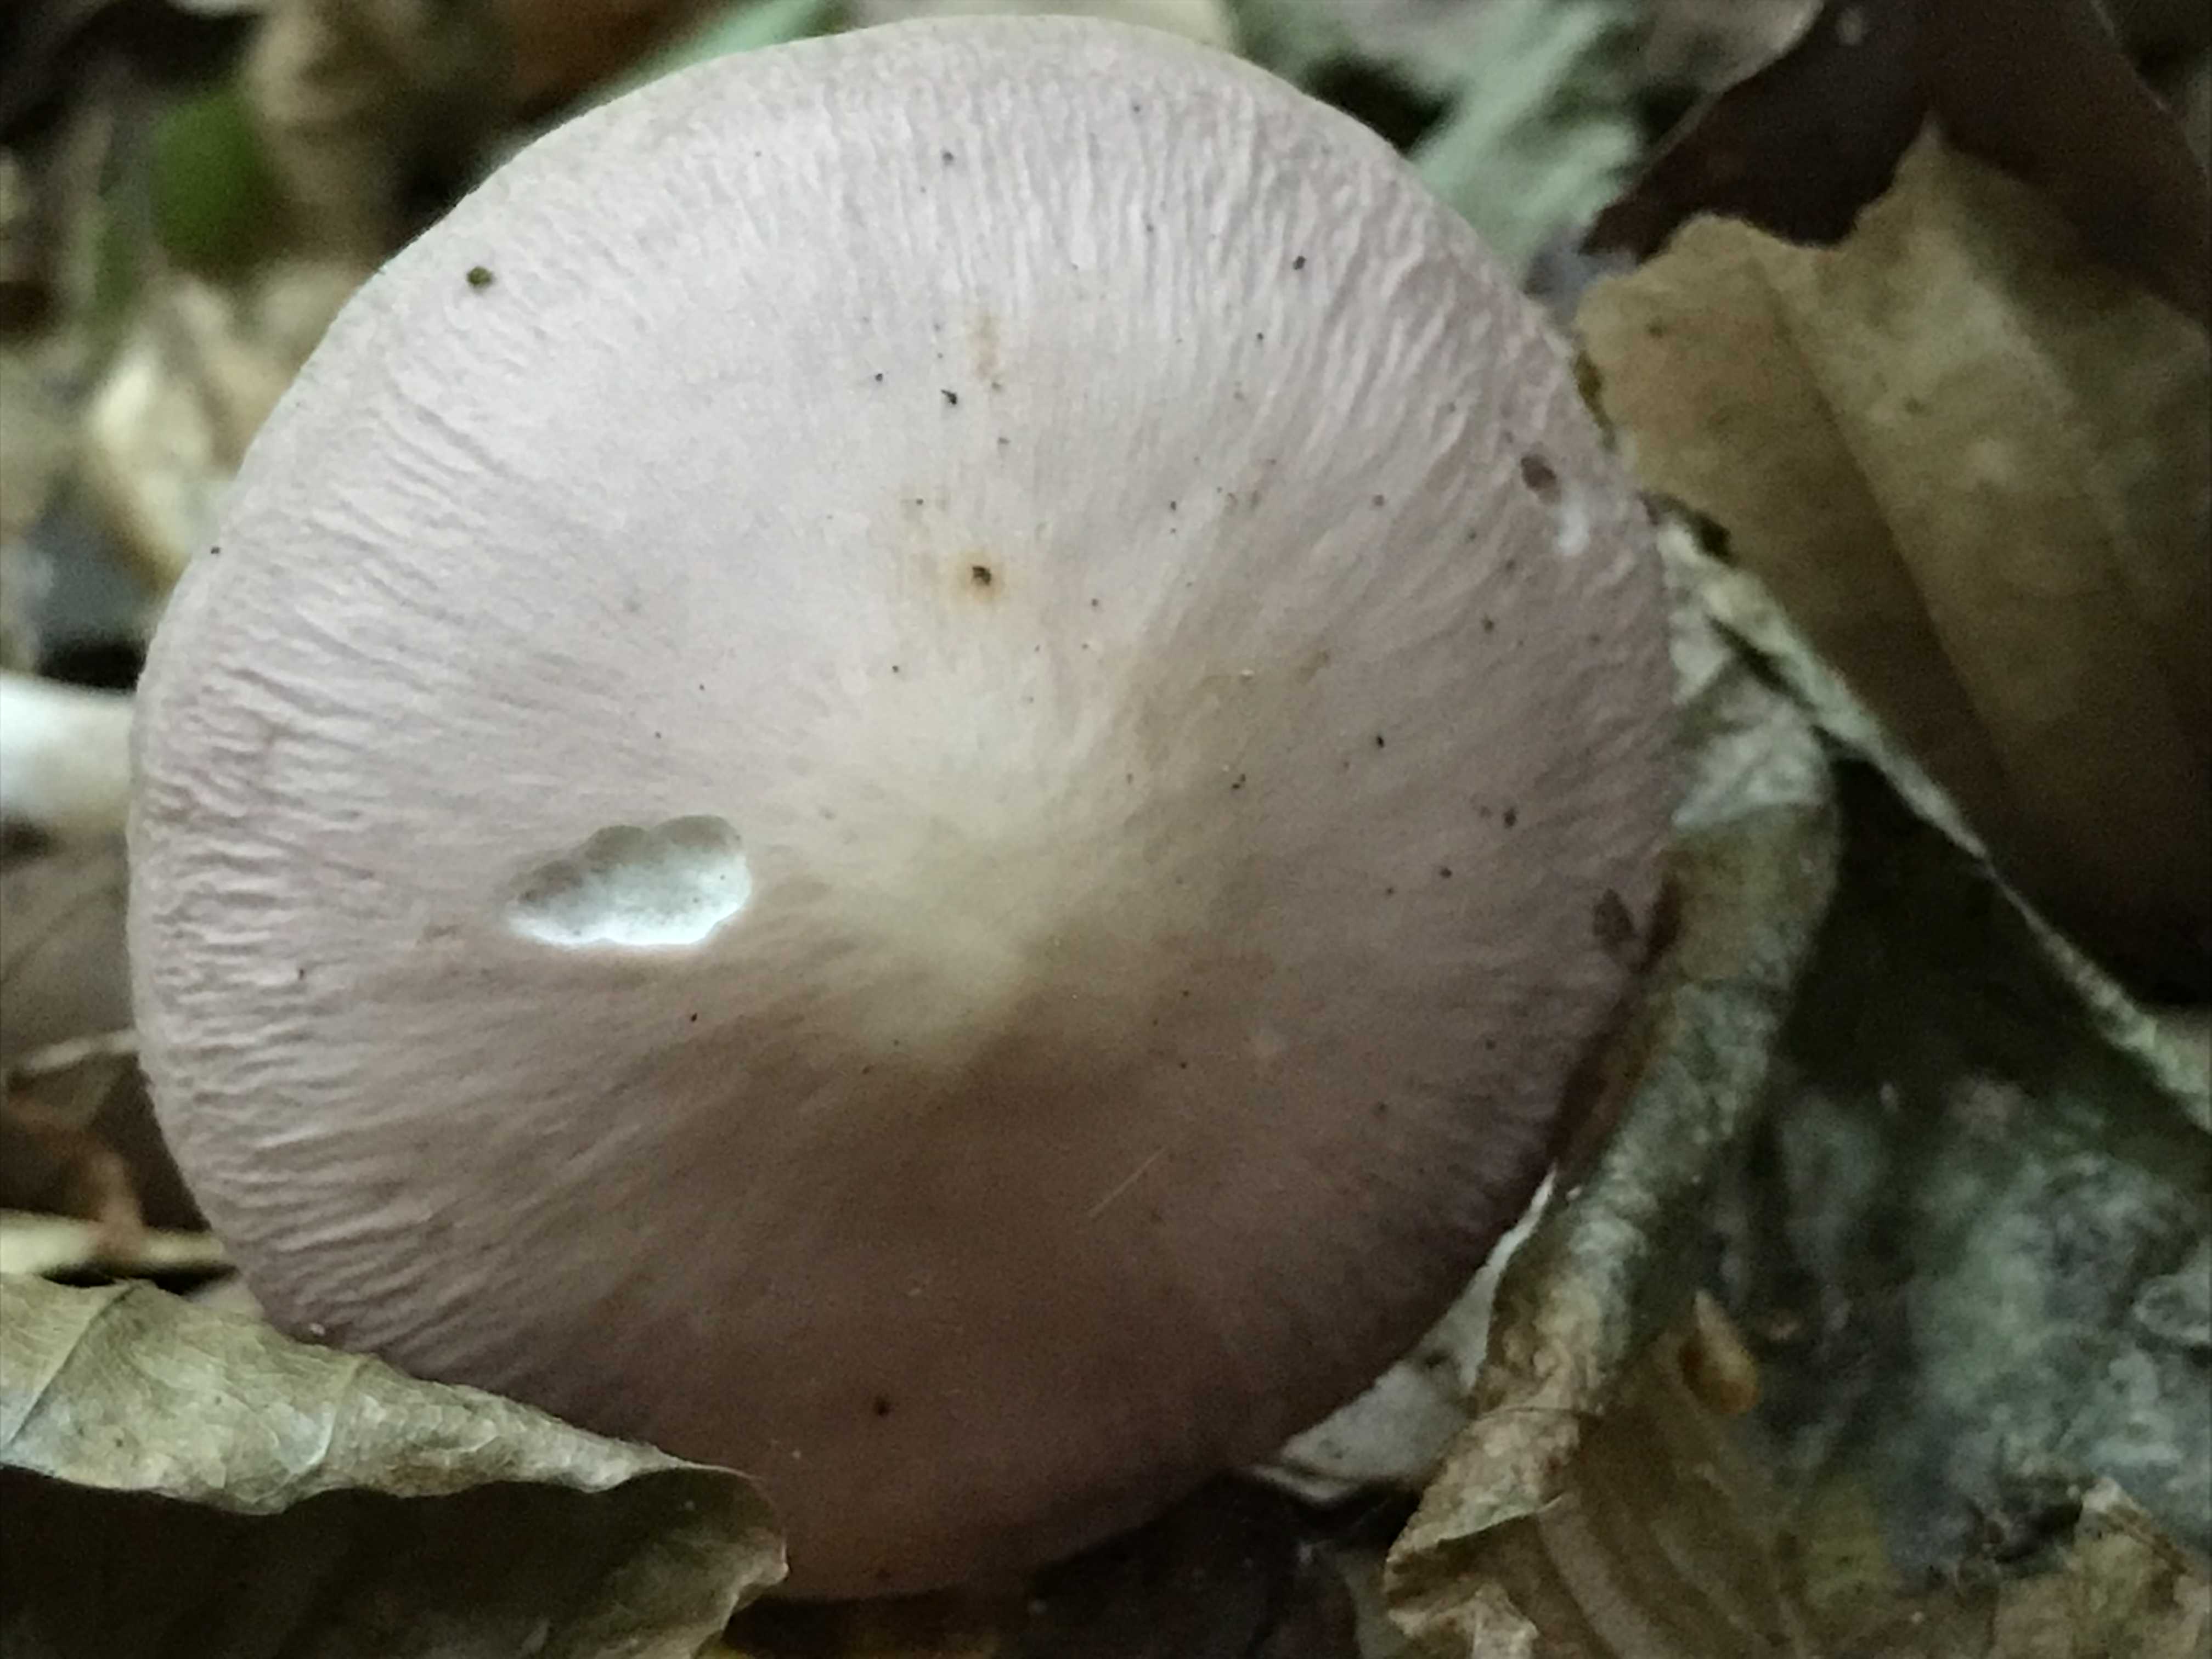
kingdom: Fungi
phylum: Basidiomycota
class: Agaricomycetes
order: Agaricales
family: Mycenaceae
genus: Mycena
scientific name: Mycena rosea
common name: rosa huesvamp
